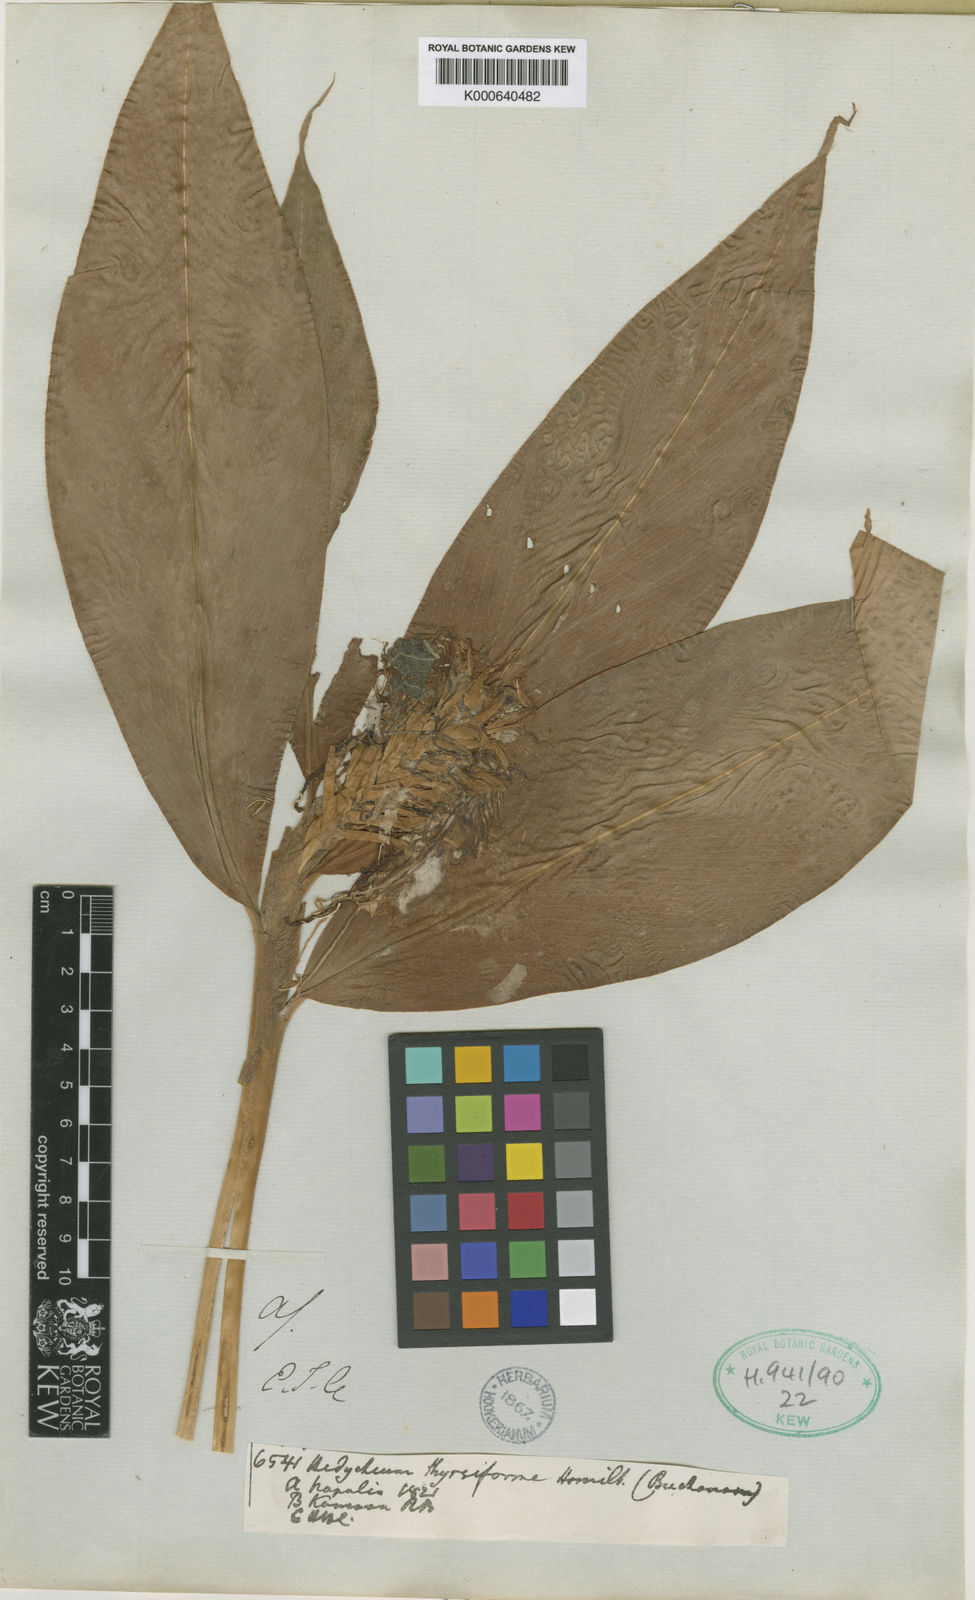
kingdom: Plantae
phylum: Tracheophyta
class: Liliopsida
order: Zingiberales
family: Zingiberaceae
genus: Hedychium
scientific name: Hedychium thyrsiforme
